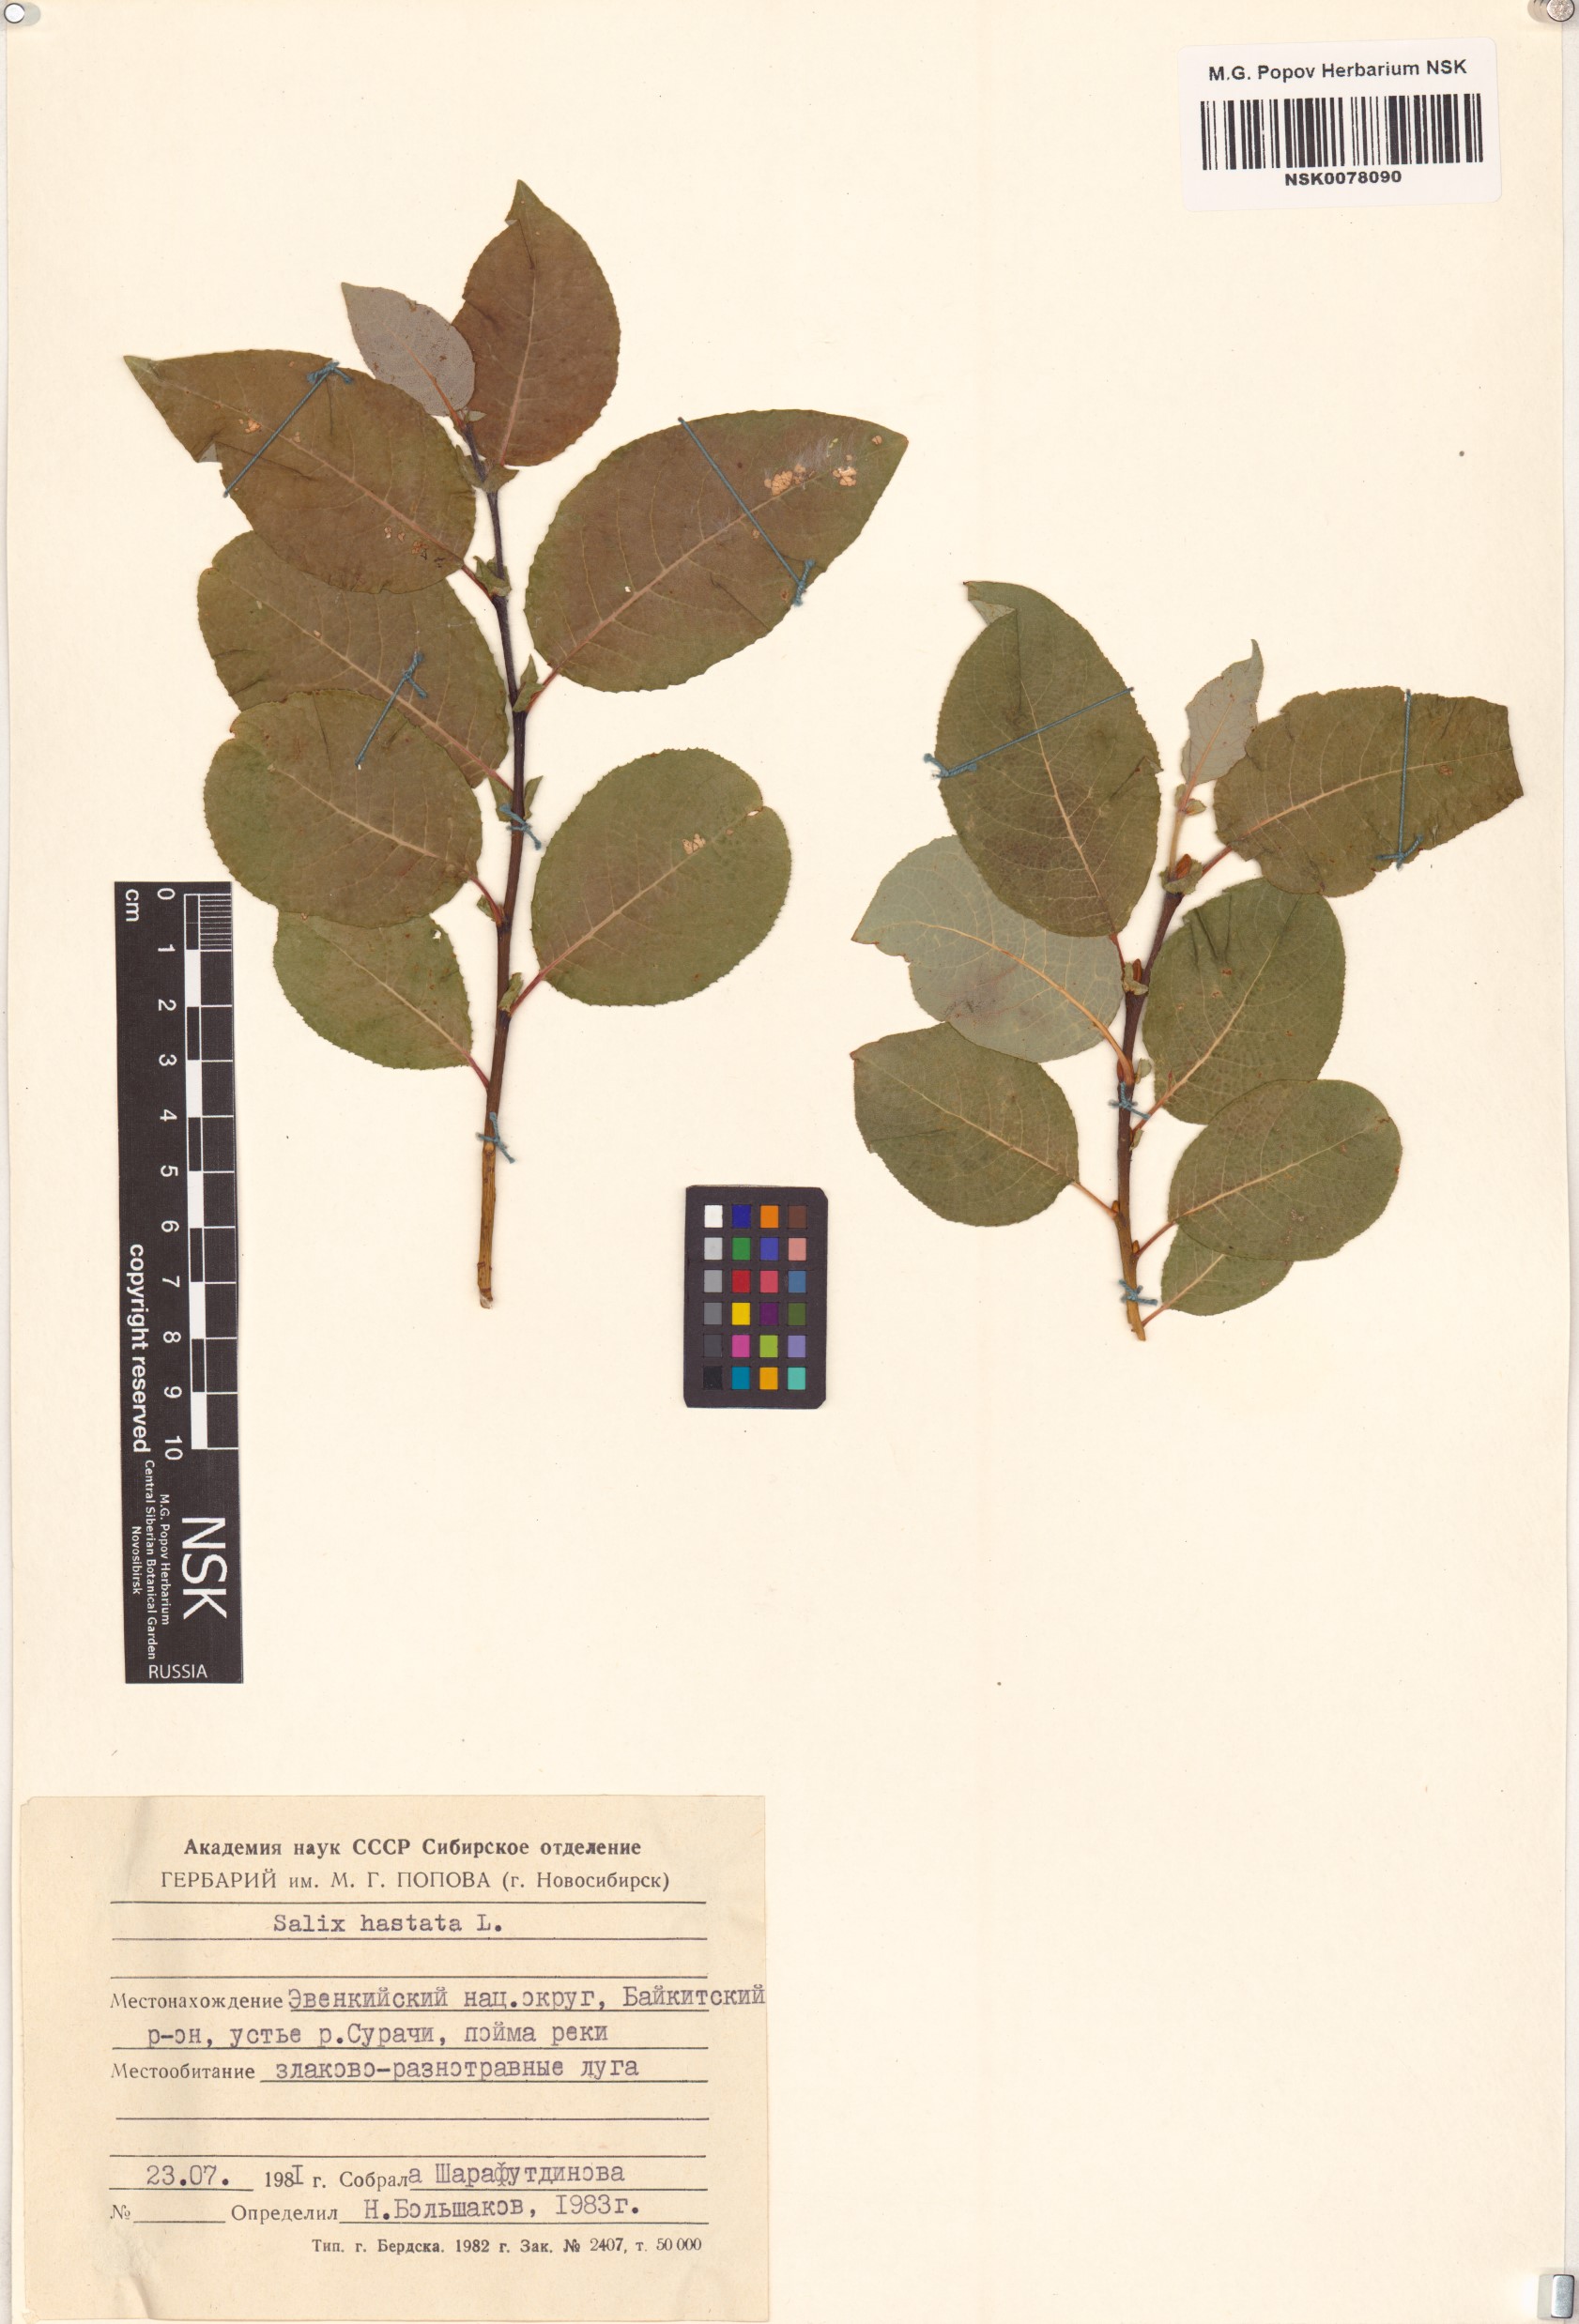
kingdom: Plantae
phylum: Tracheophyta
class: Magnoliopsida
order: Malpighiales
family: Salicaceae
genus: Salix
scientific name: Salix hastata
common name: Halberd willow
